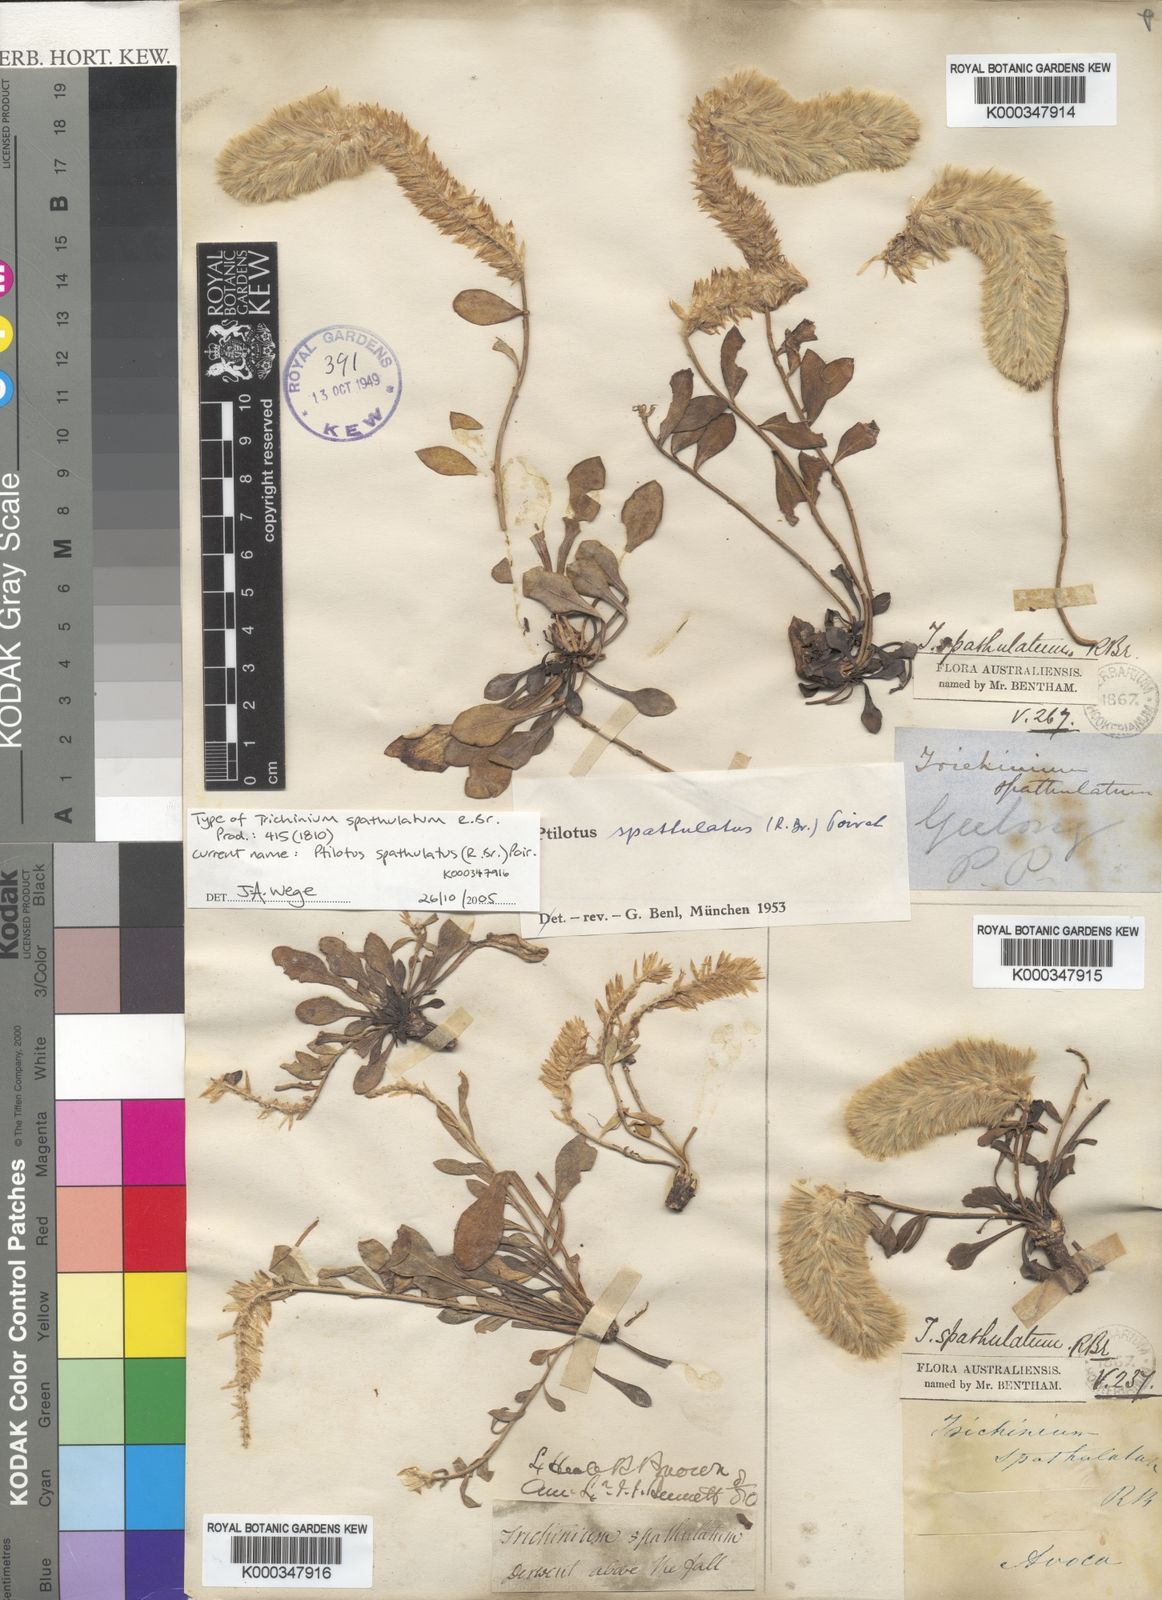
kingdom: Plantae
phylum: Tracheophyta
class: Magnoliopsida
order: Caryophyllales
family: Amaranthaceae
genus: Ptilotus
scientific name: Ptilotus spathulatus
